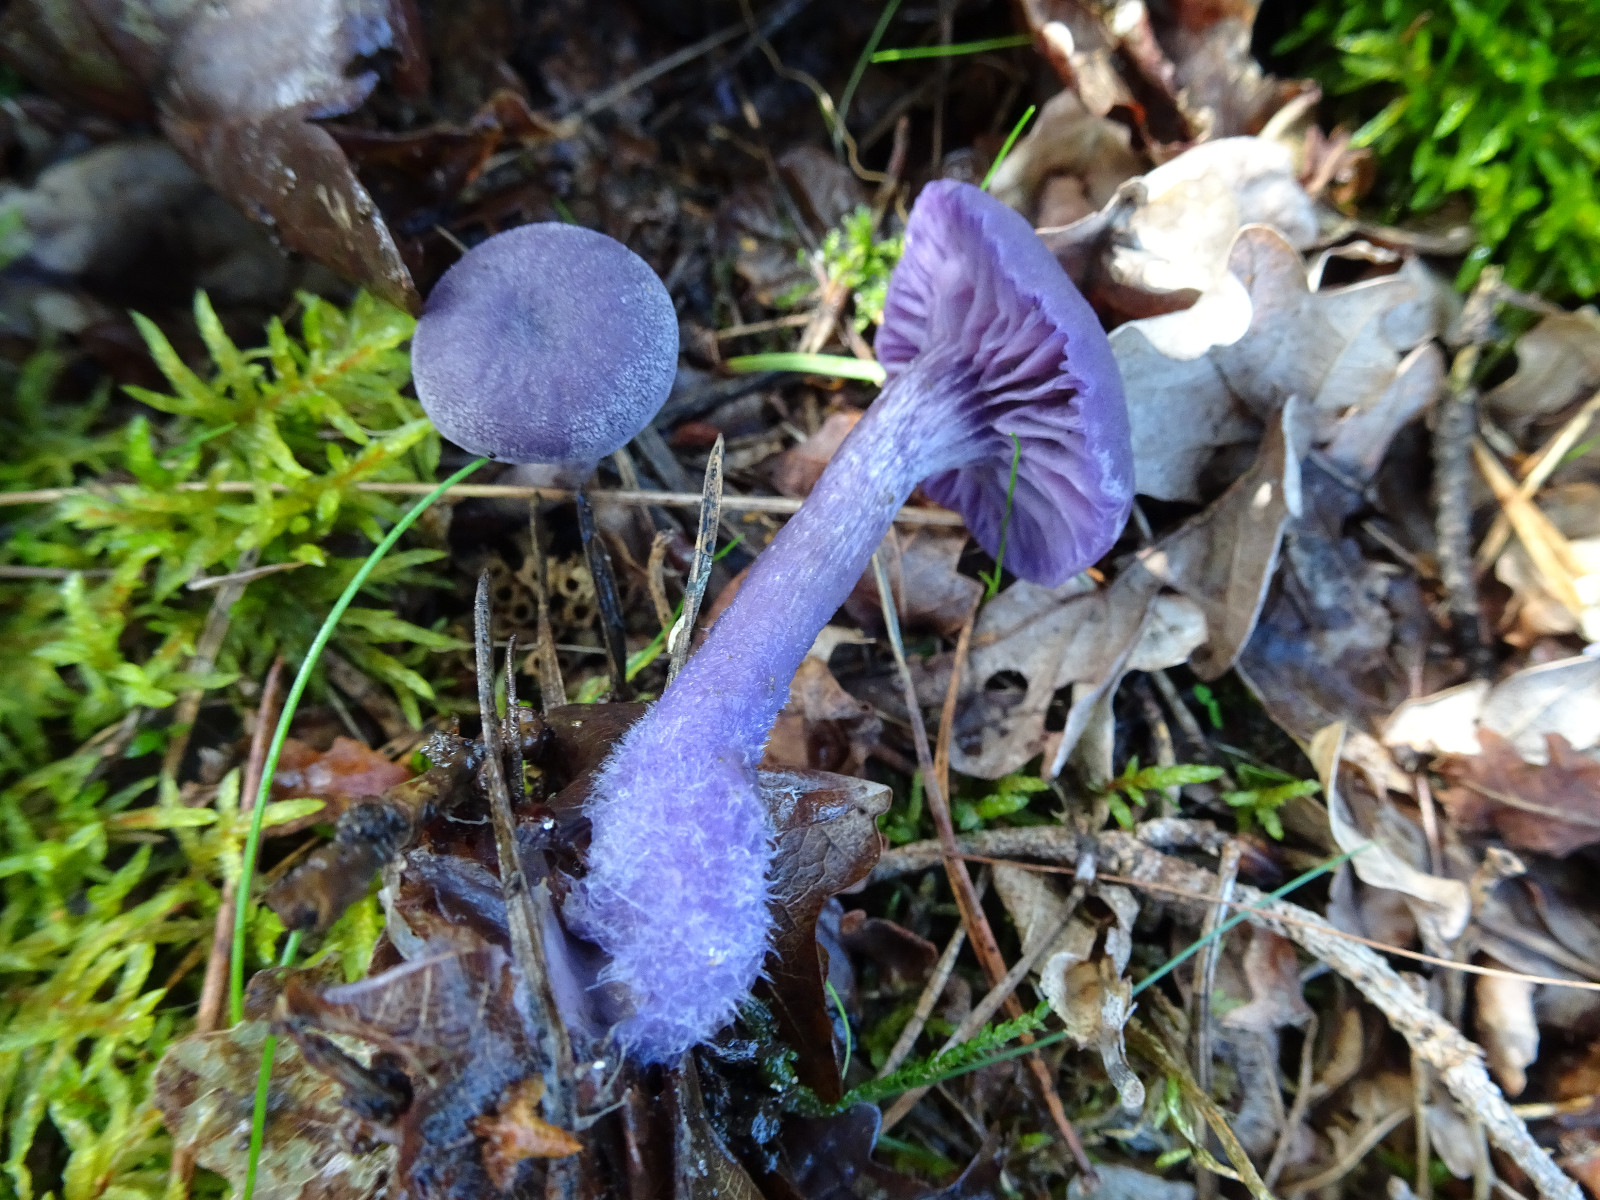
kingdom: Fungi
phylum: Basidiomycota
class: Agaricomycetes
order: Agaricales
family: Hydnangiaceae
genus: Laccaria
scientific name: Laccaria amethystina
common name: violet ametysthat
